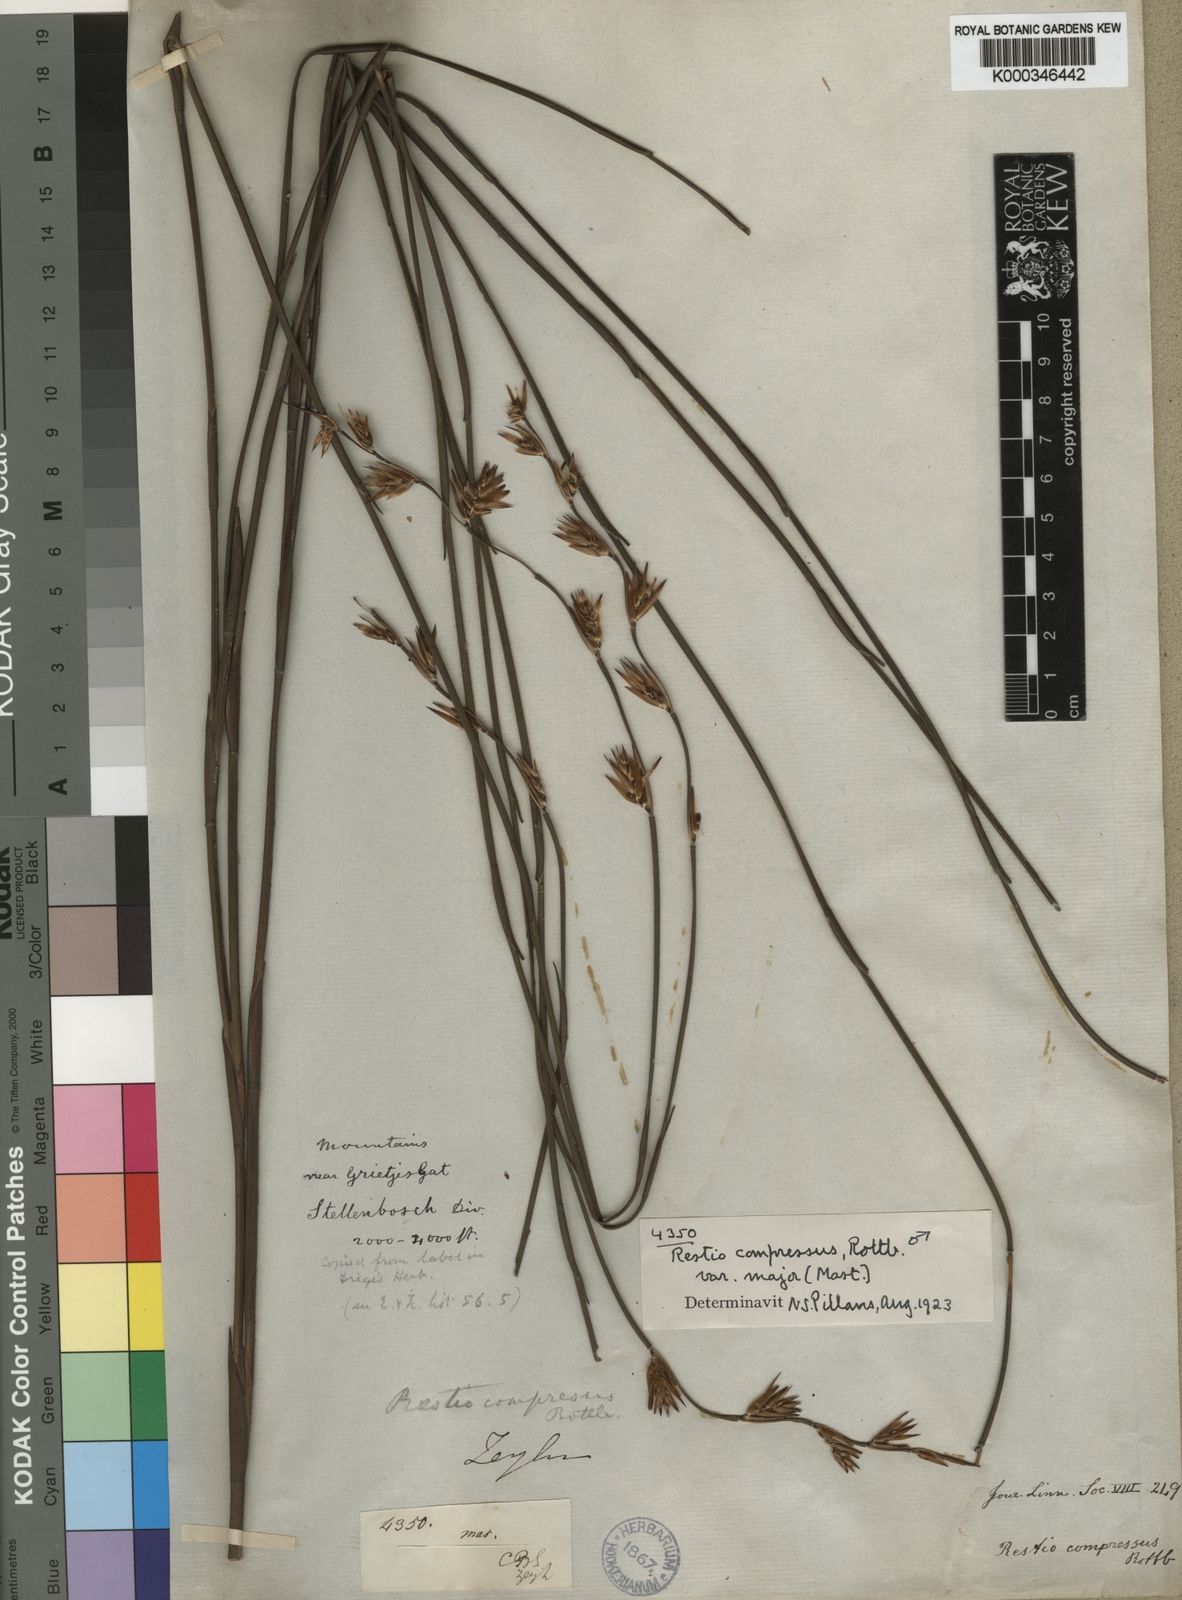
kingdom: Plantae
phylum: Tracheophyta
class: Liliopsida
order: Poales
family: Restionaceae
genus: Platycaulos
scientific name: Platycaulos major
